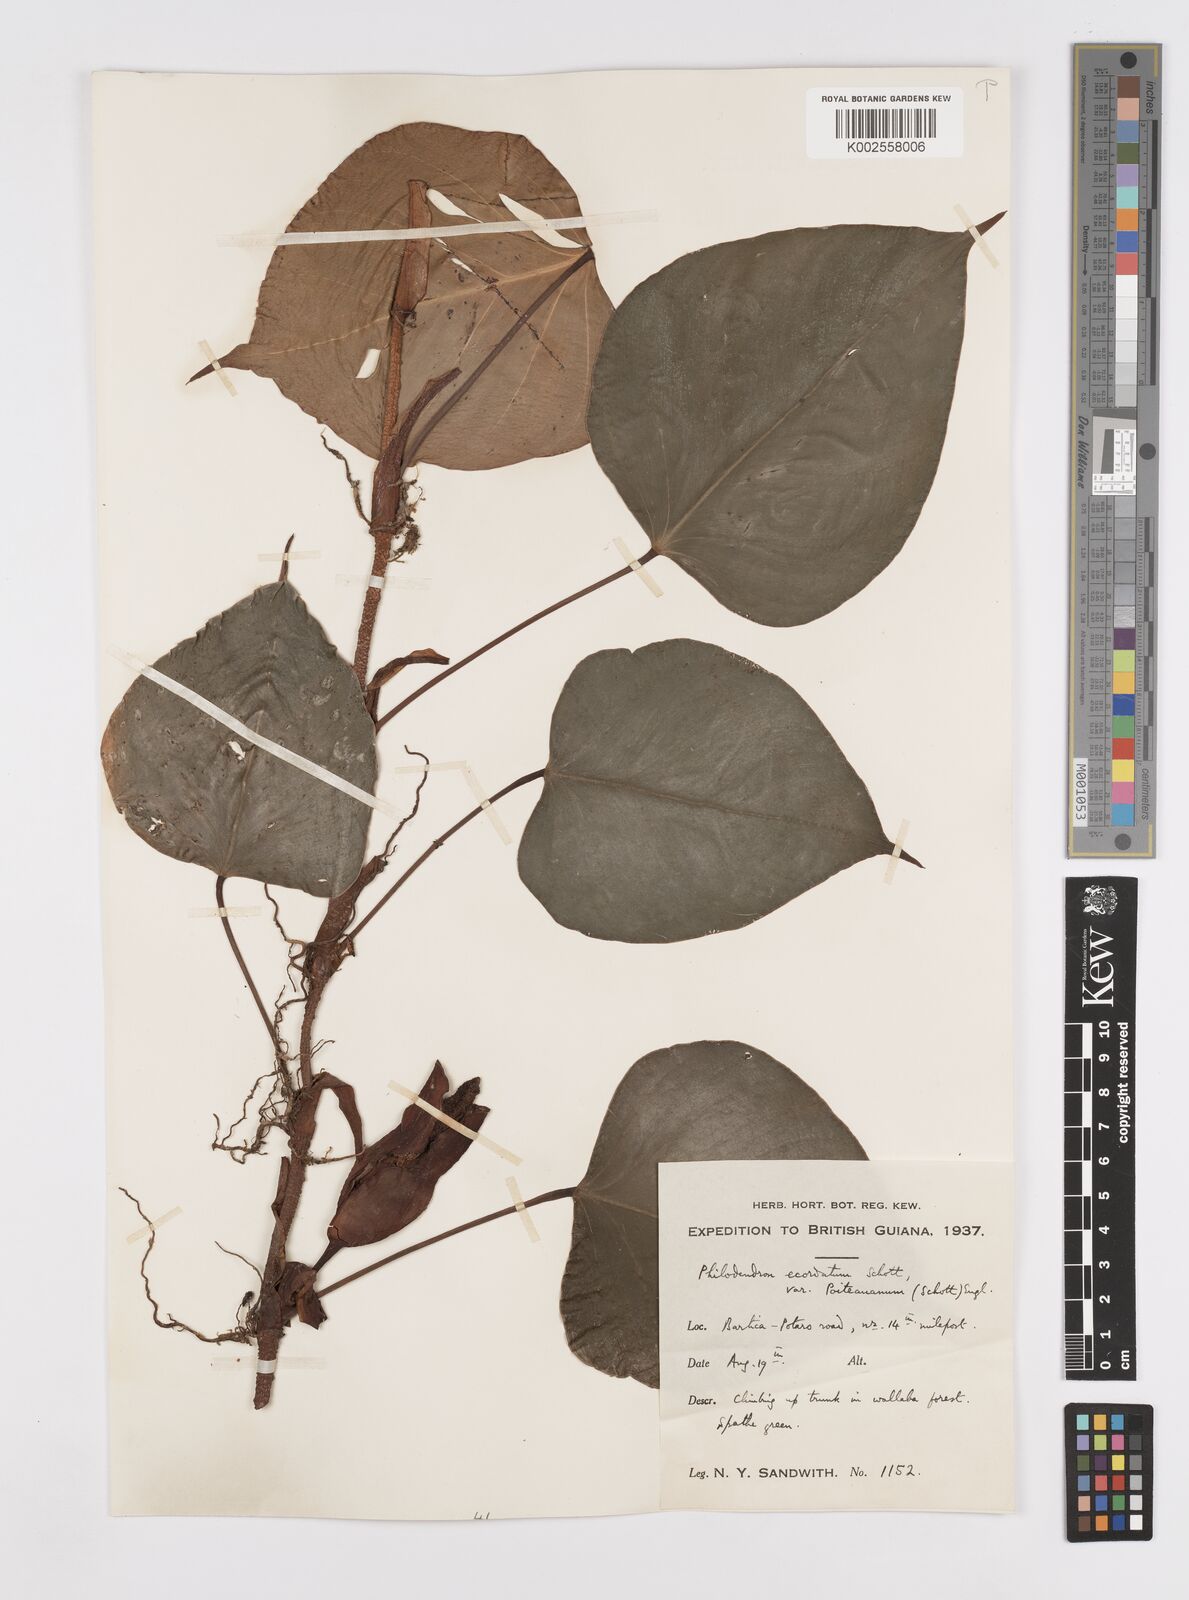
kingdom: Plantae
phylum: Tracheophyta
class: Liliopsida
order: Alismatales
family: Araceae
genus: Philodendron
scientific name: Philodendron ecordatum
